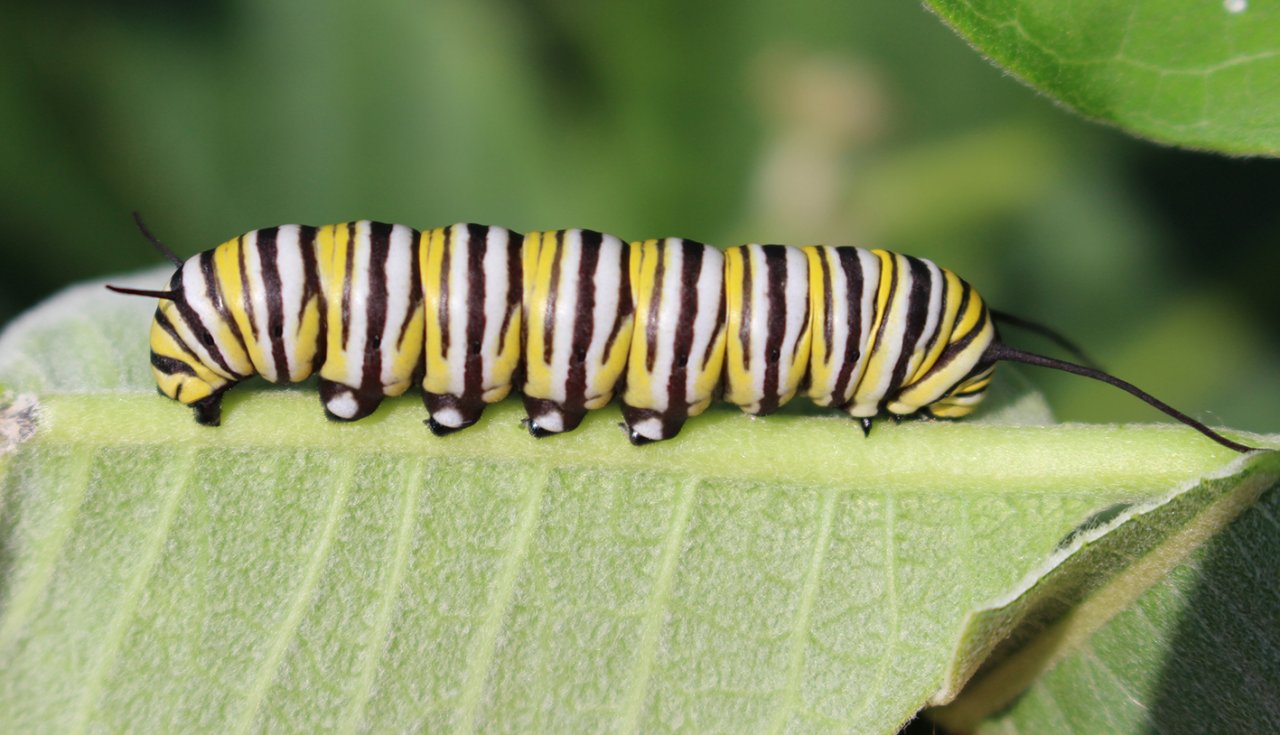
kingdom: Animalia
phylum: Arthropoda
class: Insecta
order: Lepidoptera
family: Nymphalidae
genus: Danaus
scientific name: Danaus plexippus
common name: Monarch
